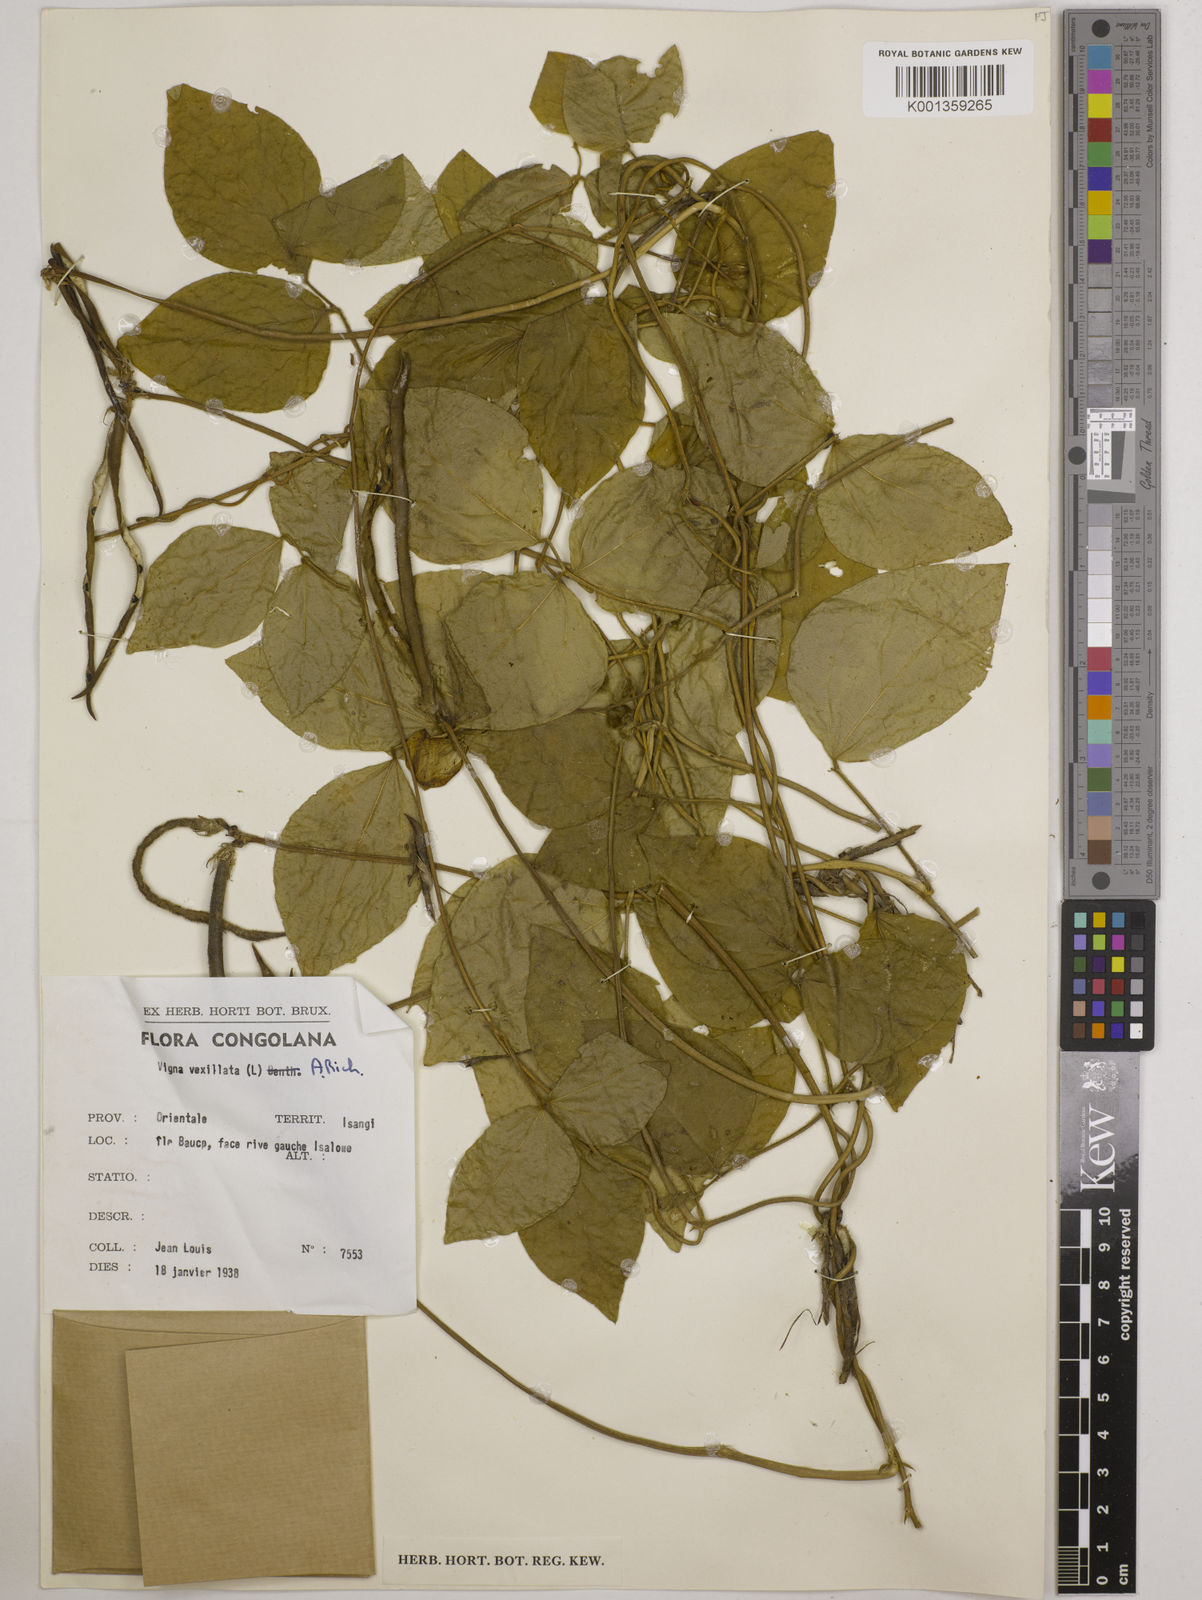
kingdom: Plantae
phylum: Tracheophyta
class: Magnoliopsida
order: Fabales
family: Fabaceae
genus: Vigna
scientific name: Vigna vexillata
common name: Zombi pea
